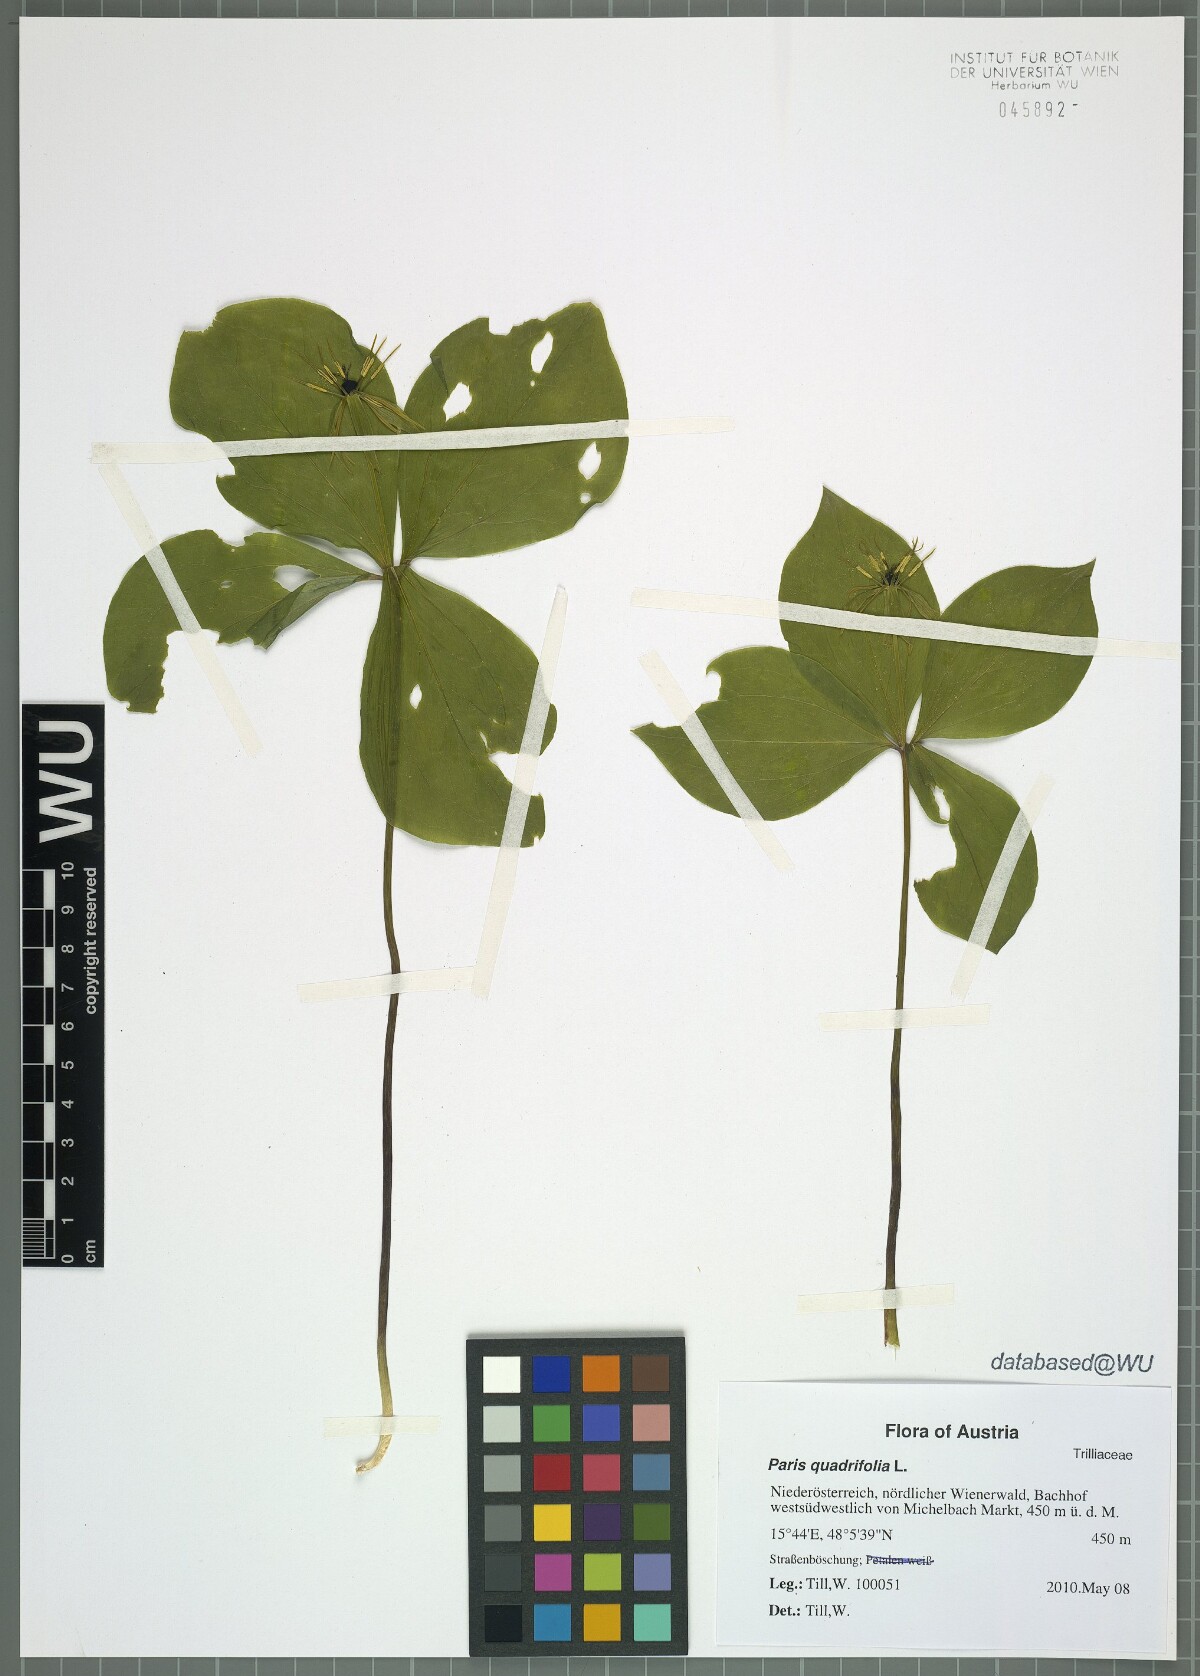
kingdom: Plantae
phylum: Tracheophyta
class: Liliopsida
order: Liliales
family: Melanthiaceae
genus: Paris
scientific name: Paris quadrifolia
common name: Herb-paris
